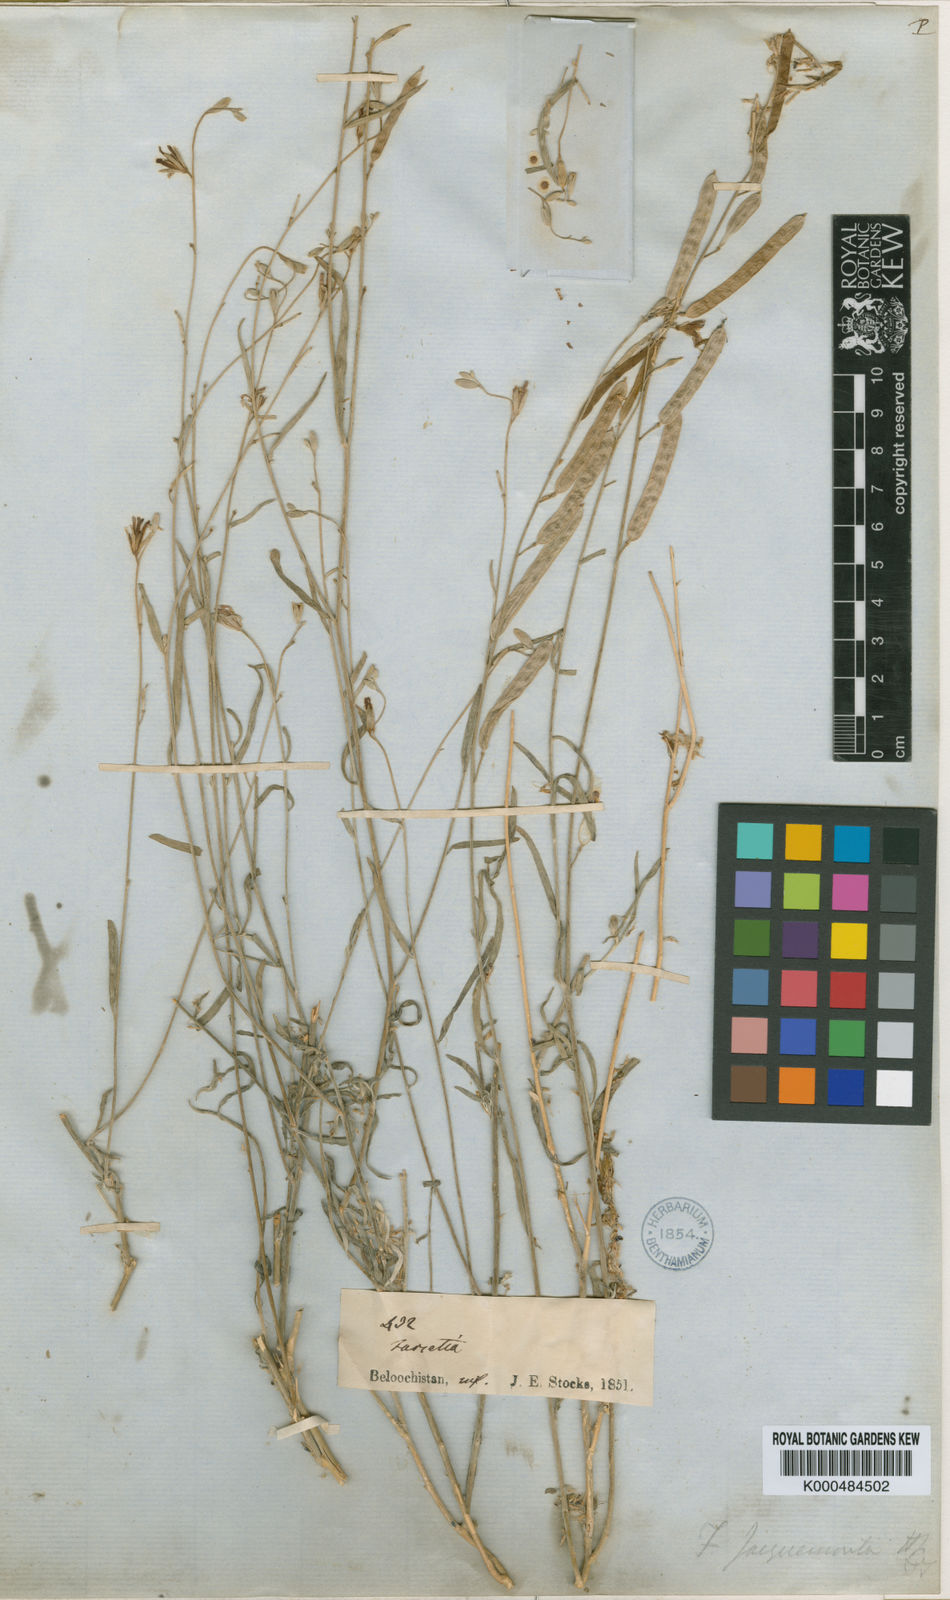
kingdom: Plantae
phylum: Tracheophyta
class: Magnoliopsida
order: Brassicales
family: Brassicaceae
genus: Farsetia
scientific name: Farsetia jacquemontii
